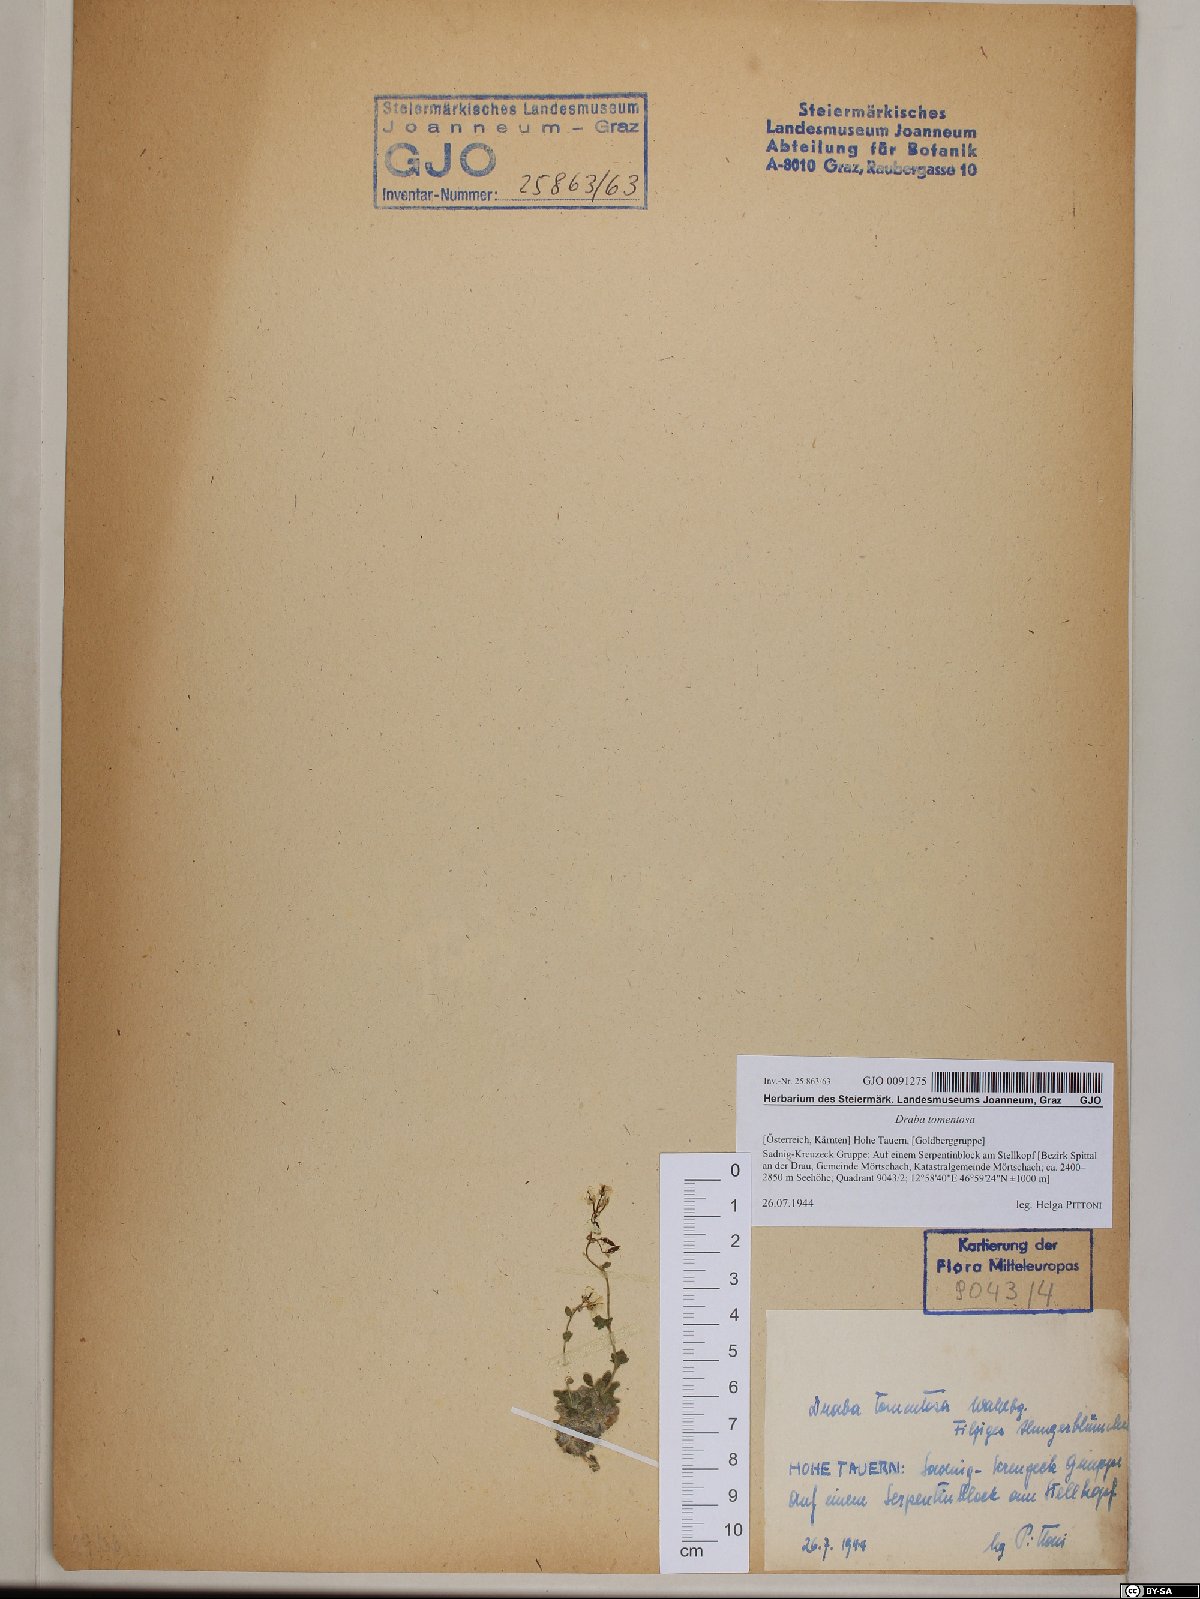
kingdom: Plantae
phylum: Tracheophyta
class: Magnoliopsida
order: Brassicales
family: Brassicaceae
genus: Draba
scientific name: Draba tomentosa
